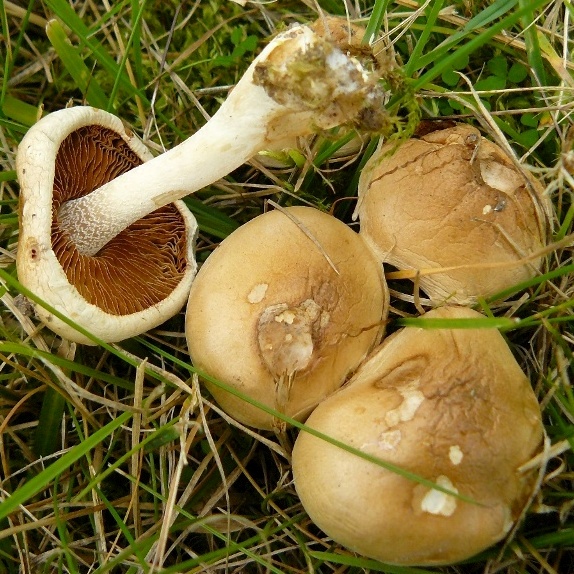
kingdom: Fungi
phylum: Basidiomycota
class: Agaricomycetes
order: Agaricales
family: Hymenogastraceae
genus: Hebeloma
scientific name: Hebeloma eburneum
